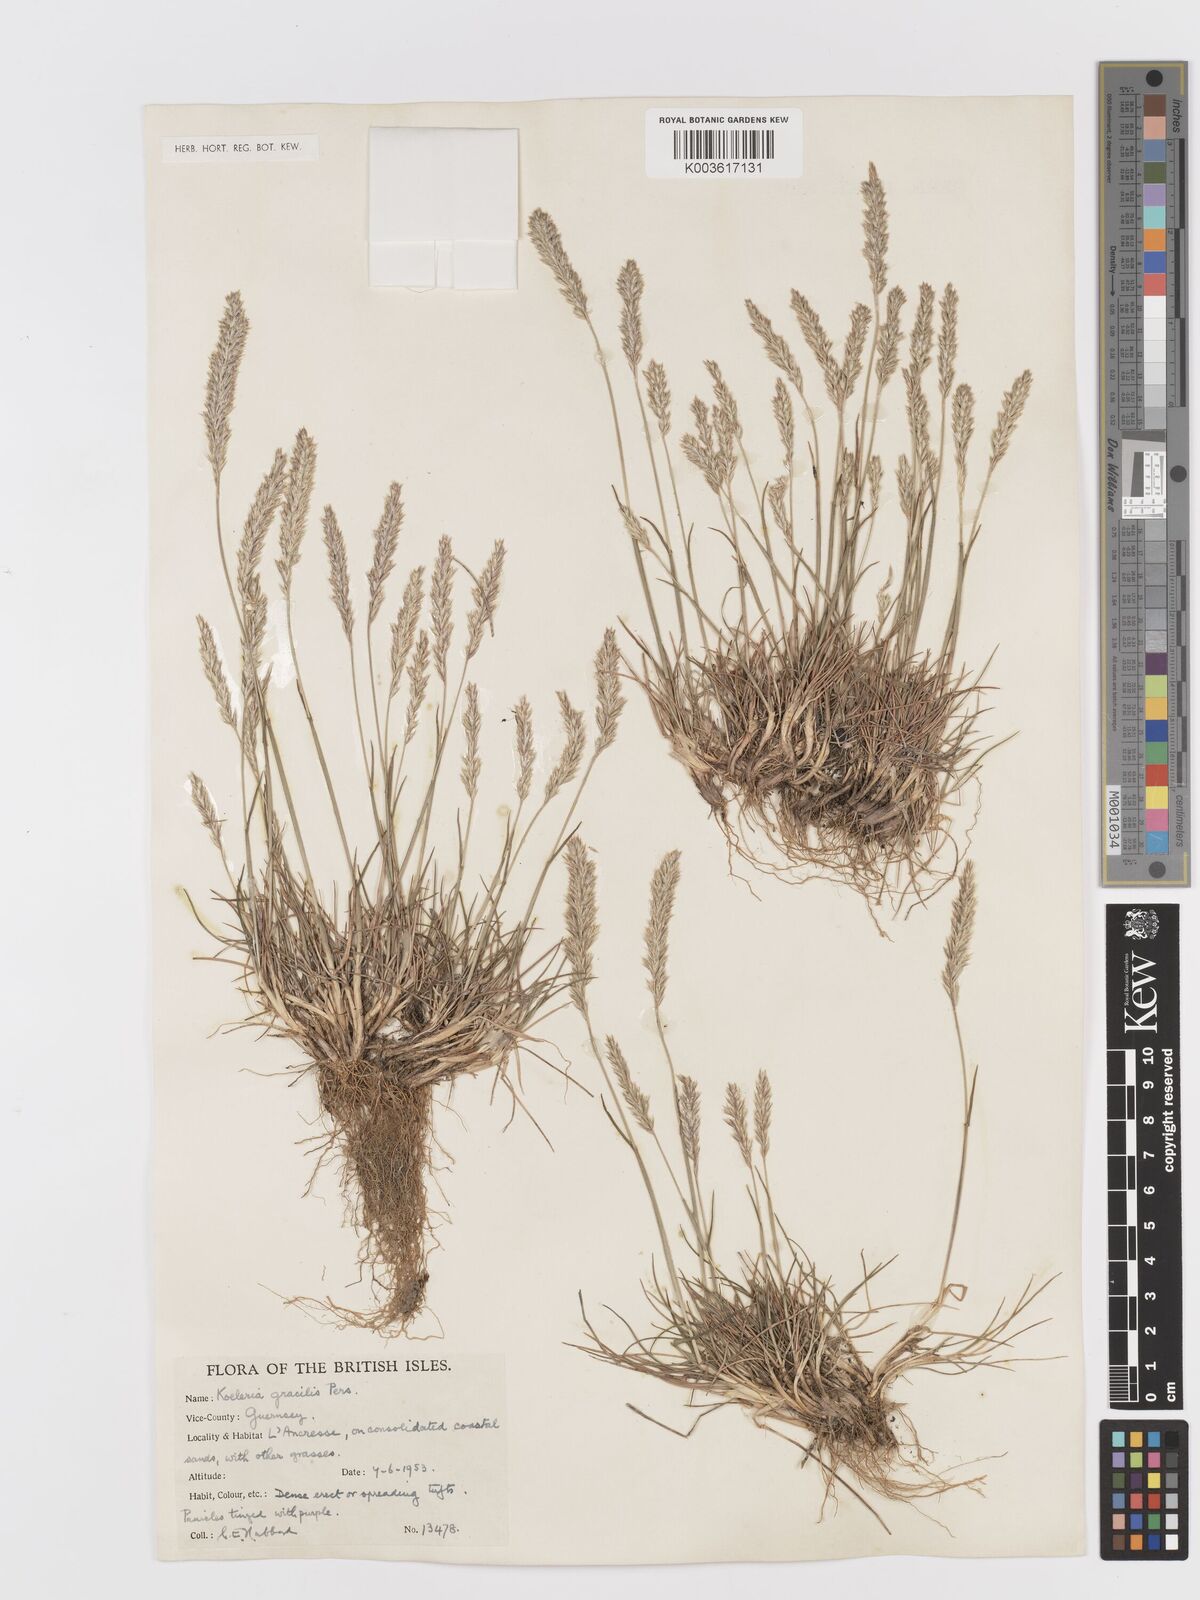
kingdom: Plantae
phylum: Tracheophyta
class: Liliopsida
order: Poales
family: Poaceae
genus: Koeleria
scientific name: Koeleria macrantha
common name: Crested hair-grass
